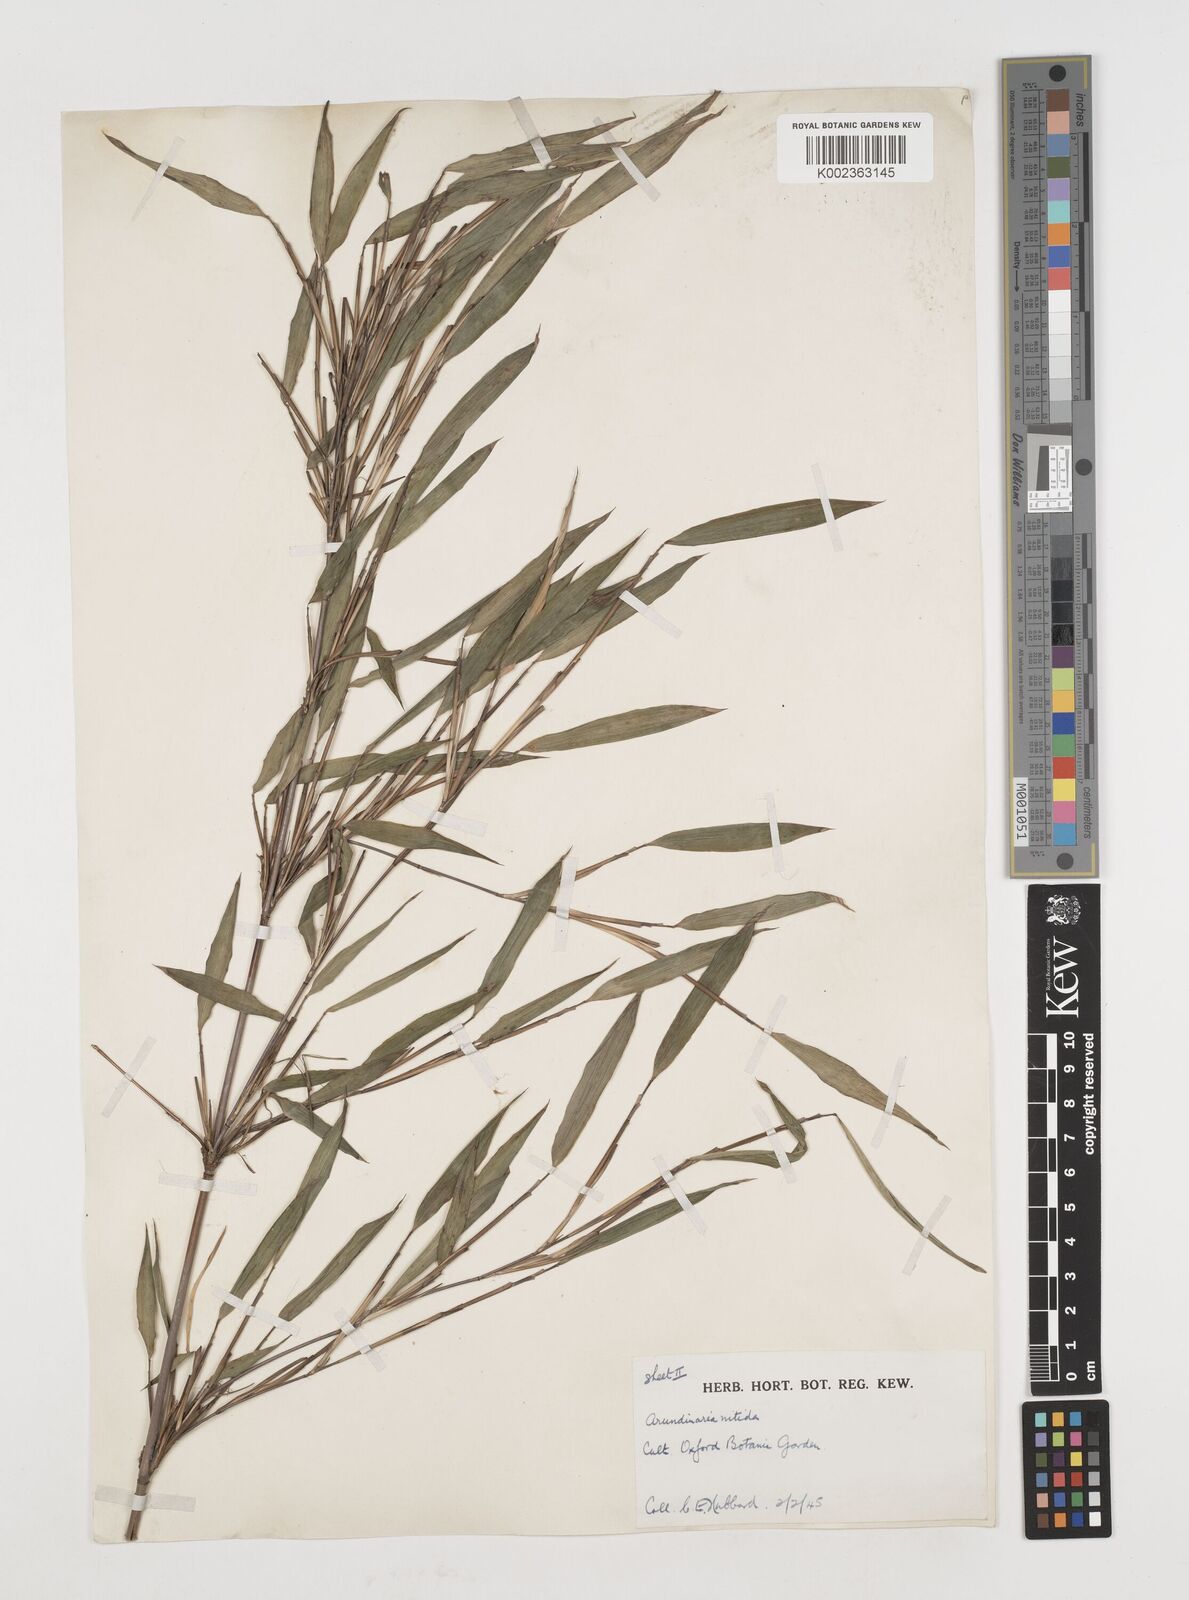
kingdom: Plantae
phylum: Tracheophyta
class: Liliopsida
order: Poales
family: Poaceae
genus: Fargesia
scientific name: Fargesia
